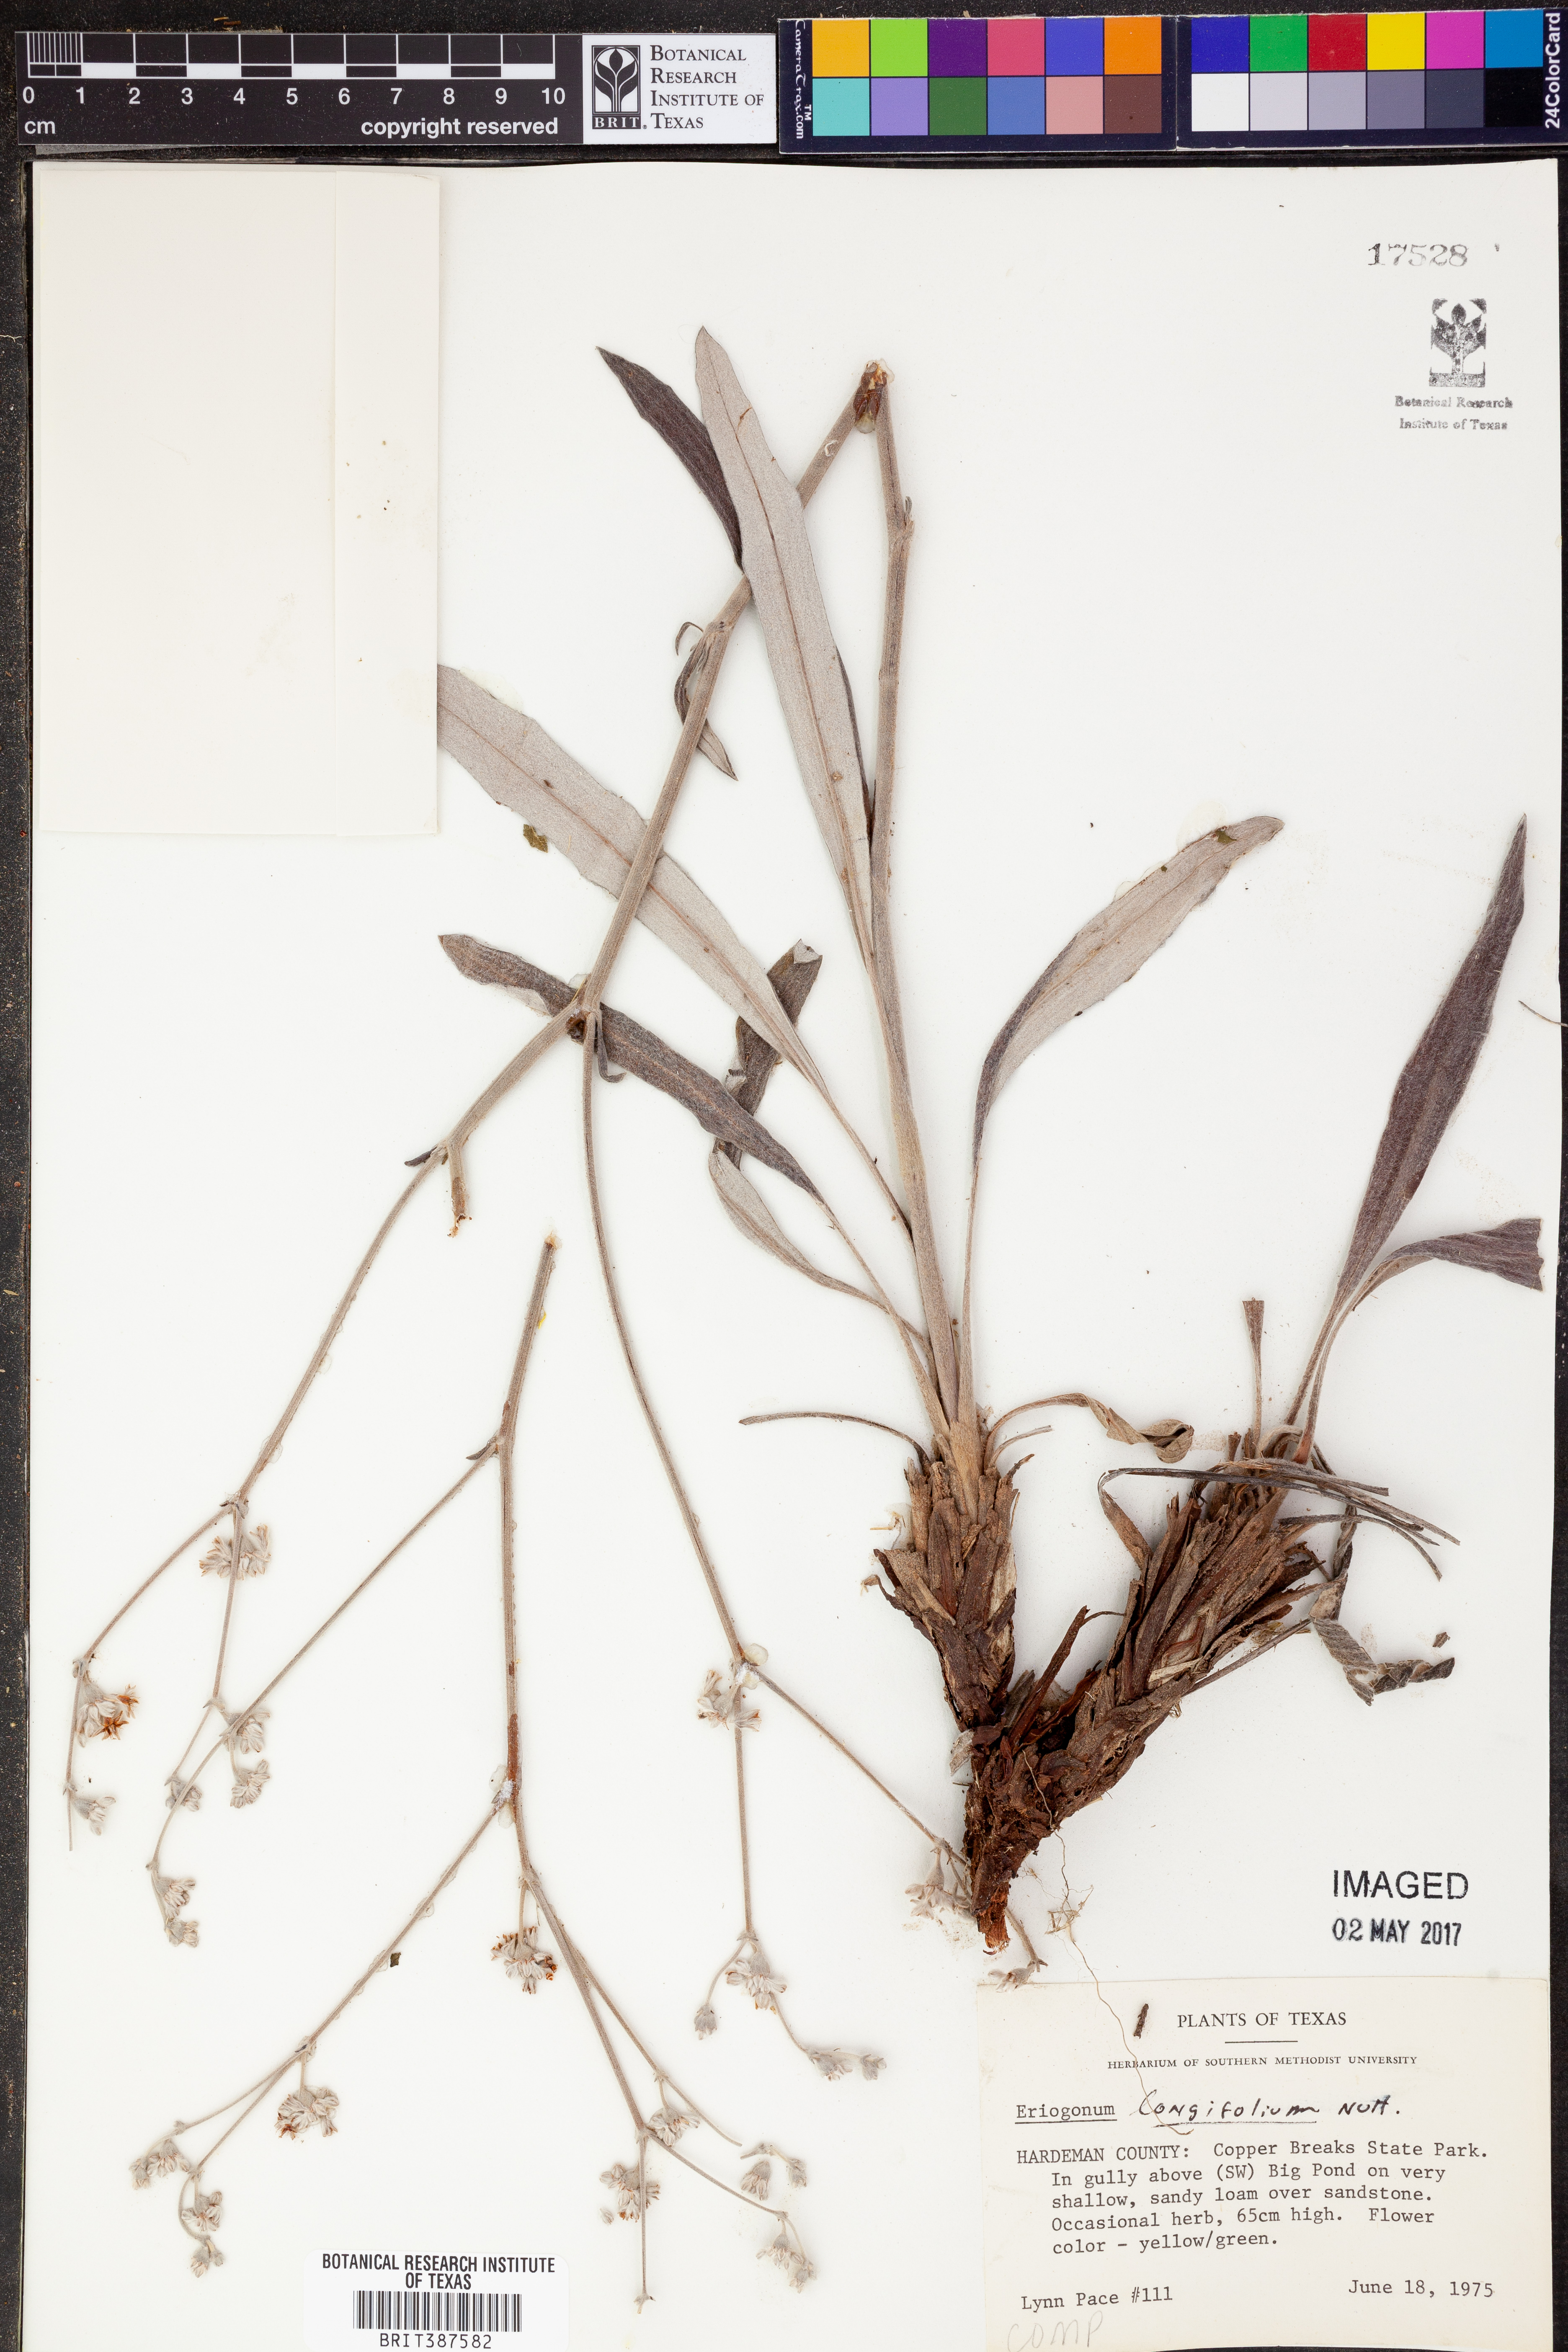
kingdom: Plantae
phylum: Tracheophyta
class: Magnoliopsida
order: Caryophyllales
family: Polygonaceae
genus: Eriogonum
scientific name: Eriogonum longifolium
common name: Longleaf wild buckwheat
